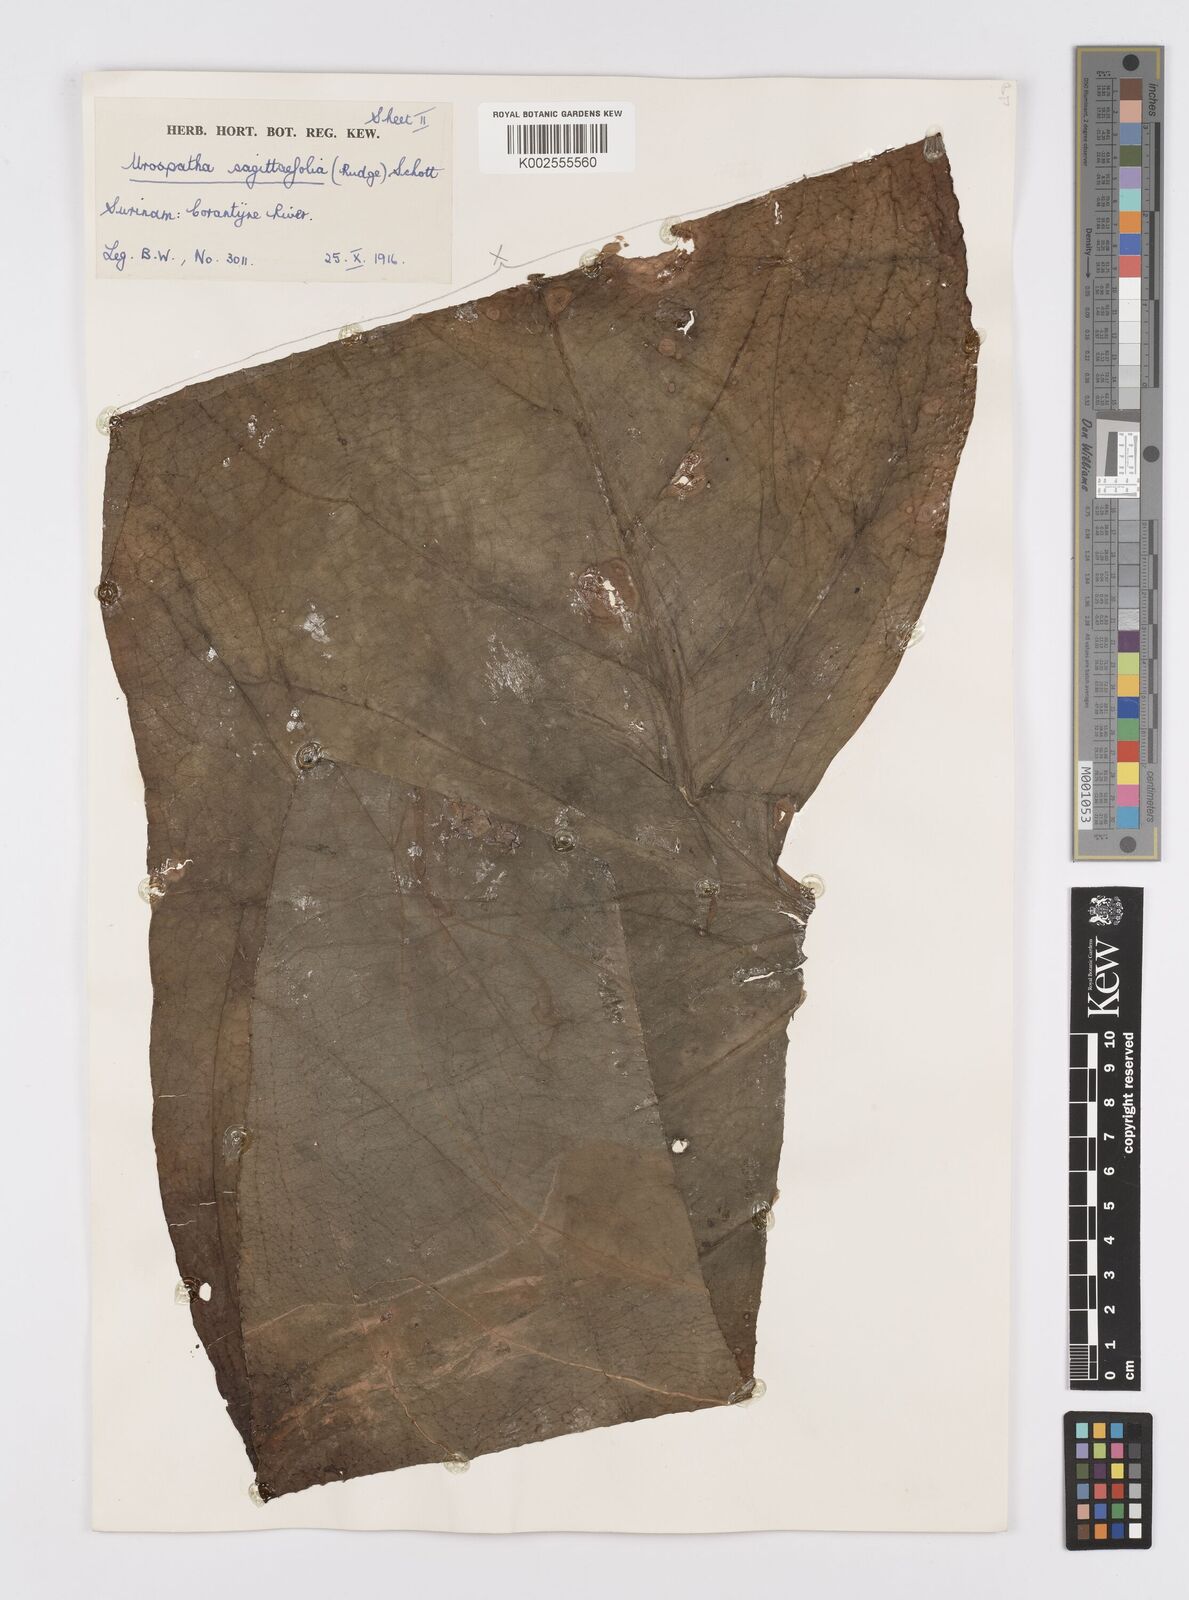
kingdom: Plantae
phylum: Tracheophyta
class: Liliopsida
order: Alismatales
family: Araceae
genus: Urospatha
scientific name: Urospatha sagittifolia
